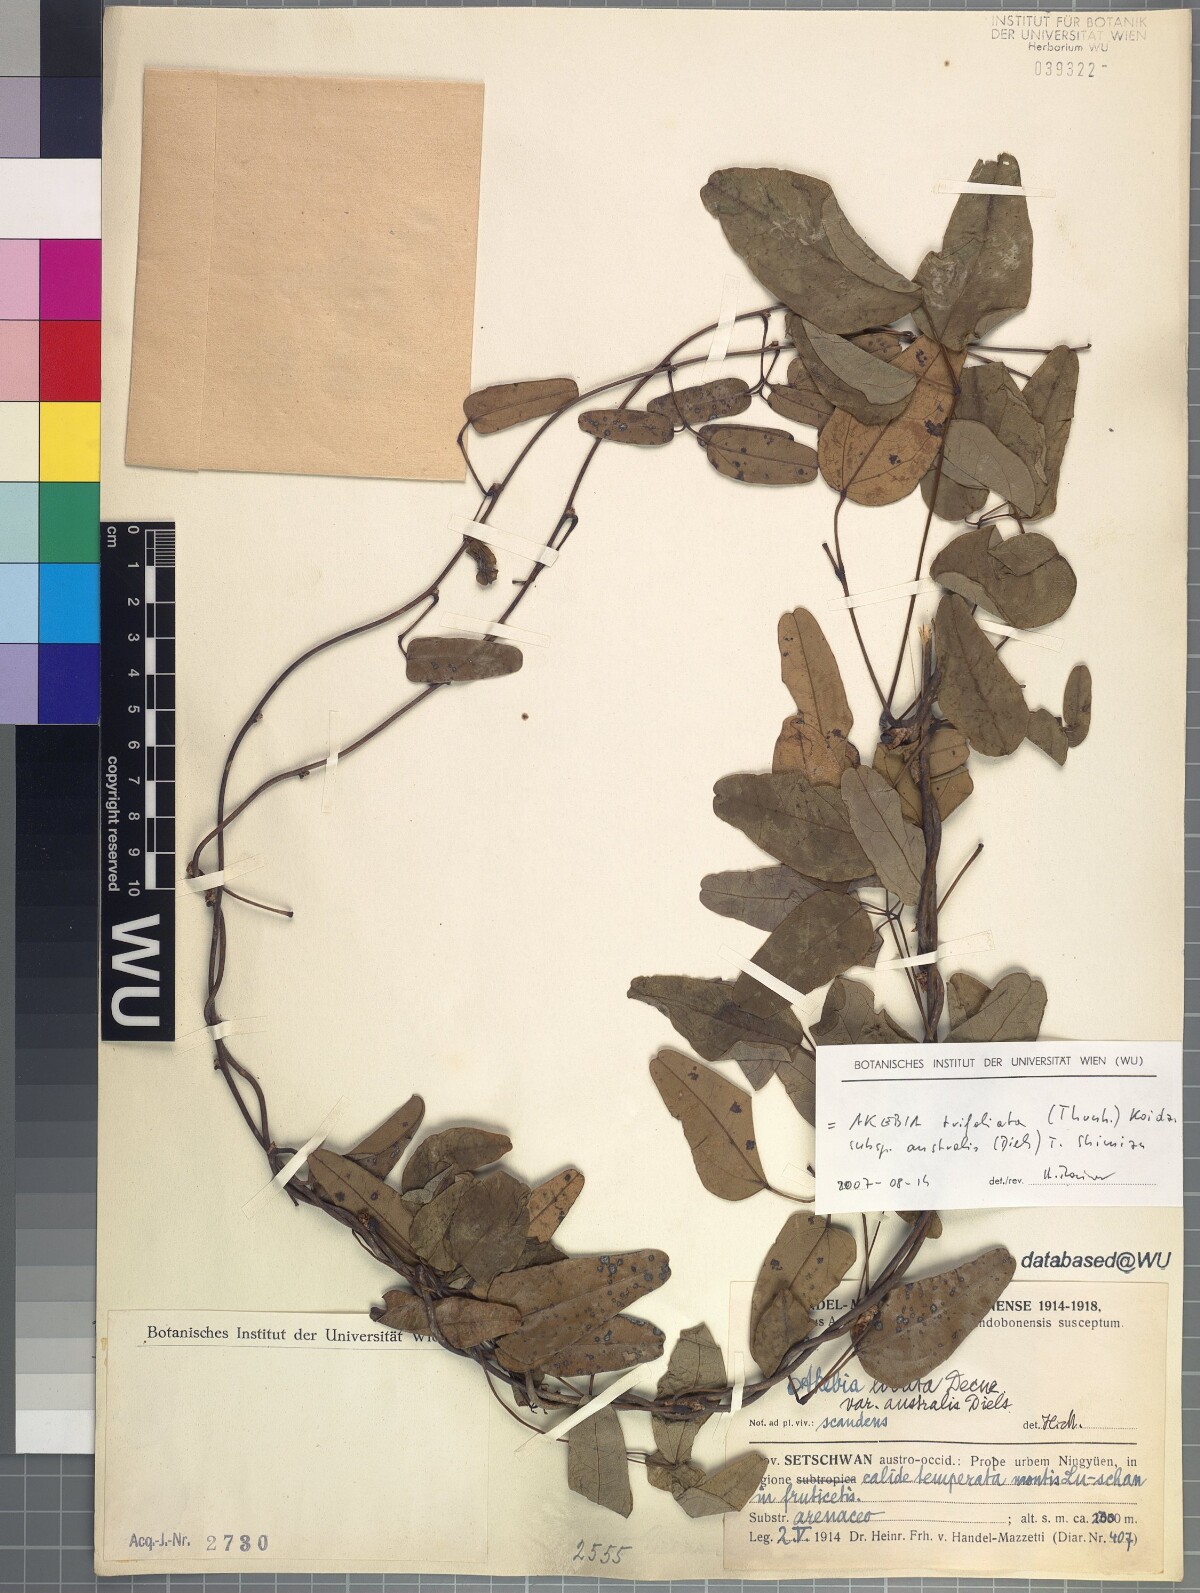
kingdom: Plantae
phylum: Tracheophyta
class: Magnoliopsida
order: Ranunculales
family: Lardizabalaceae
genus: Akebia
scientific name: Akebia trifoliata
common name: Chocolate-vine
